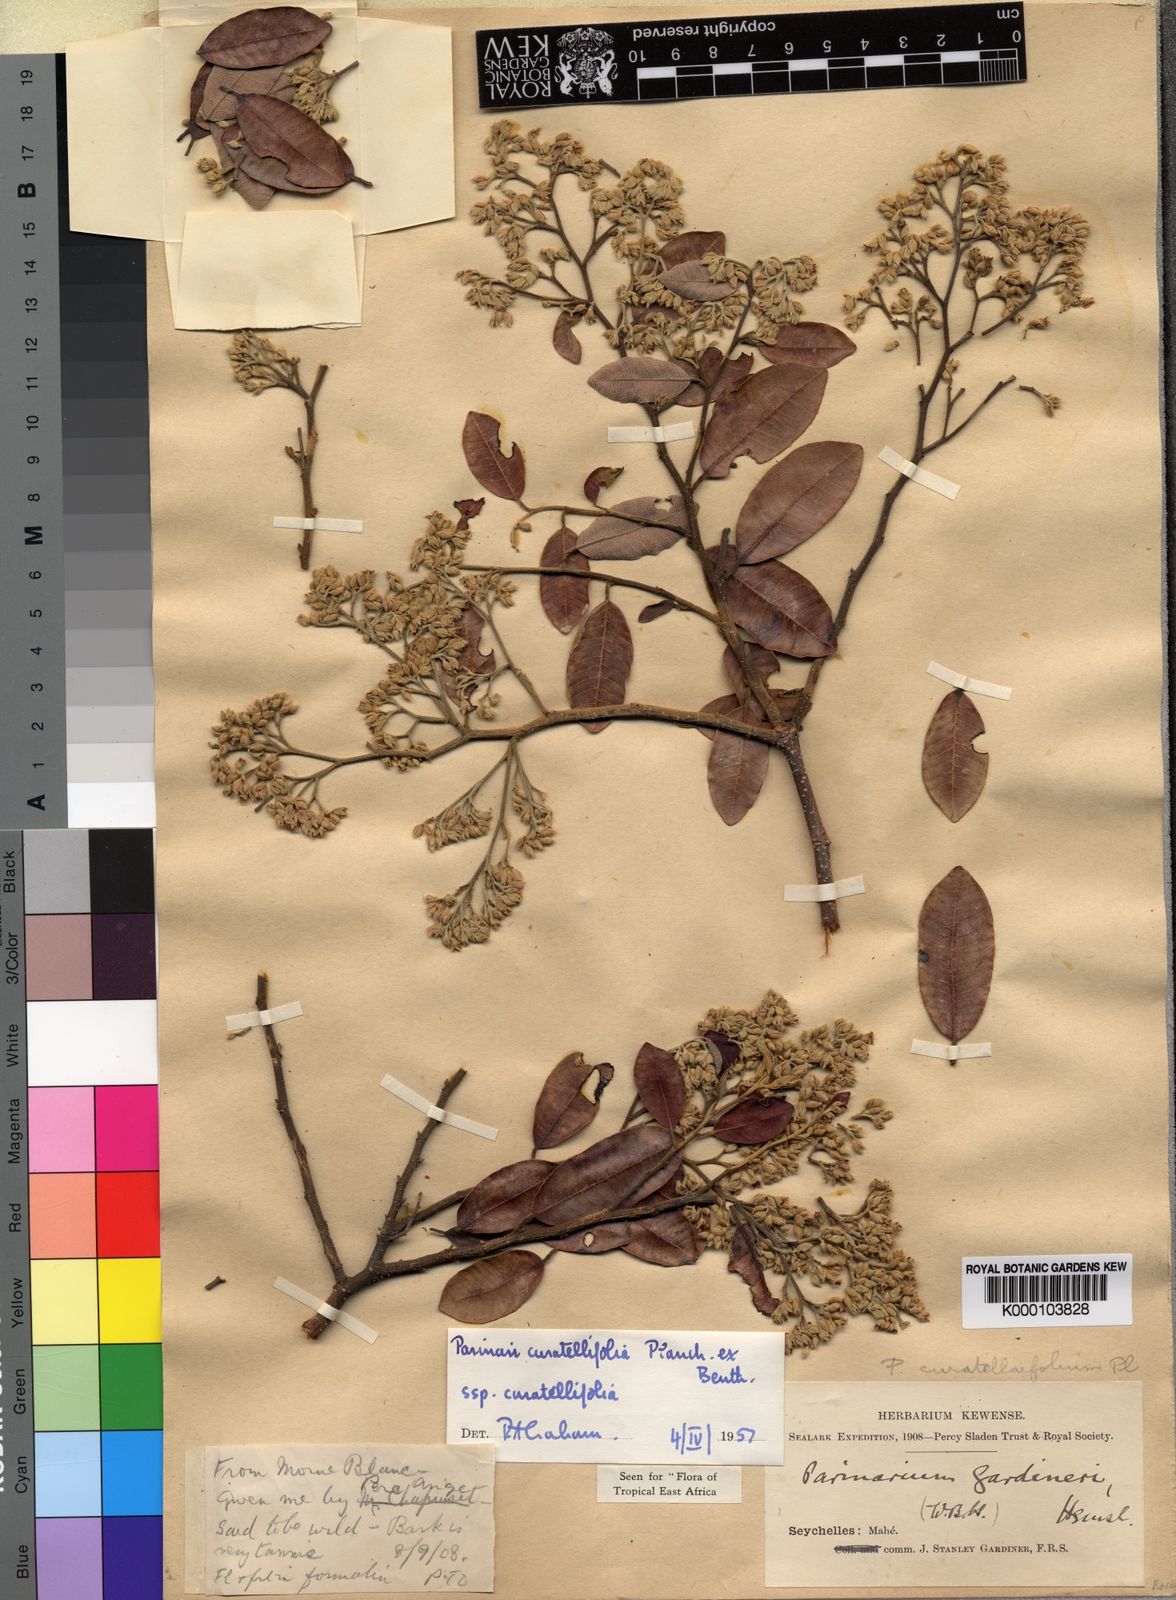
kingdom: Plantae
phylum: Tracheophyta
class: Magnoliopsida
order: Malpighiales
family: Chrysobalanaceae
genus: Parinari
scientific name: Parinari curatellifolia
